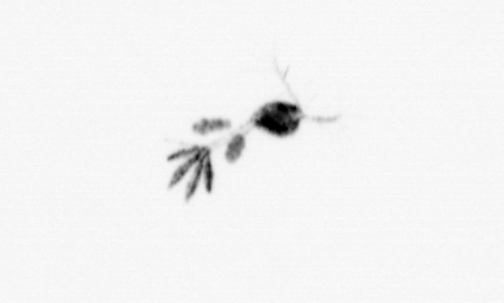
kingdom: Animalia
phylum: Arthropoda
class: Copepoda
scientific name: Copepoda
